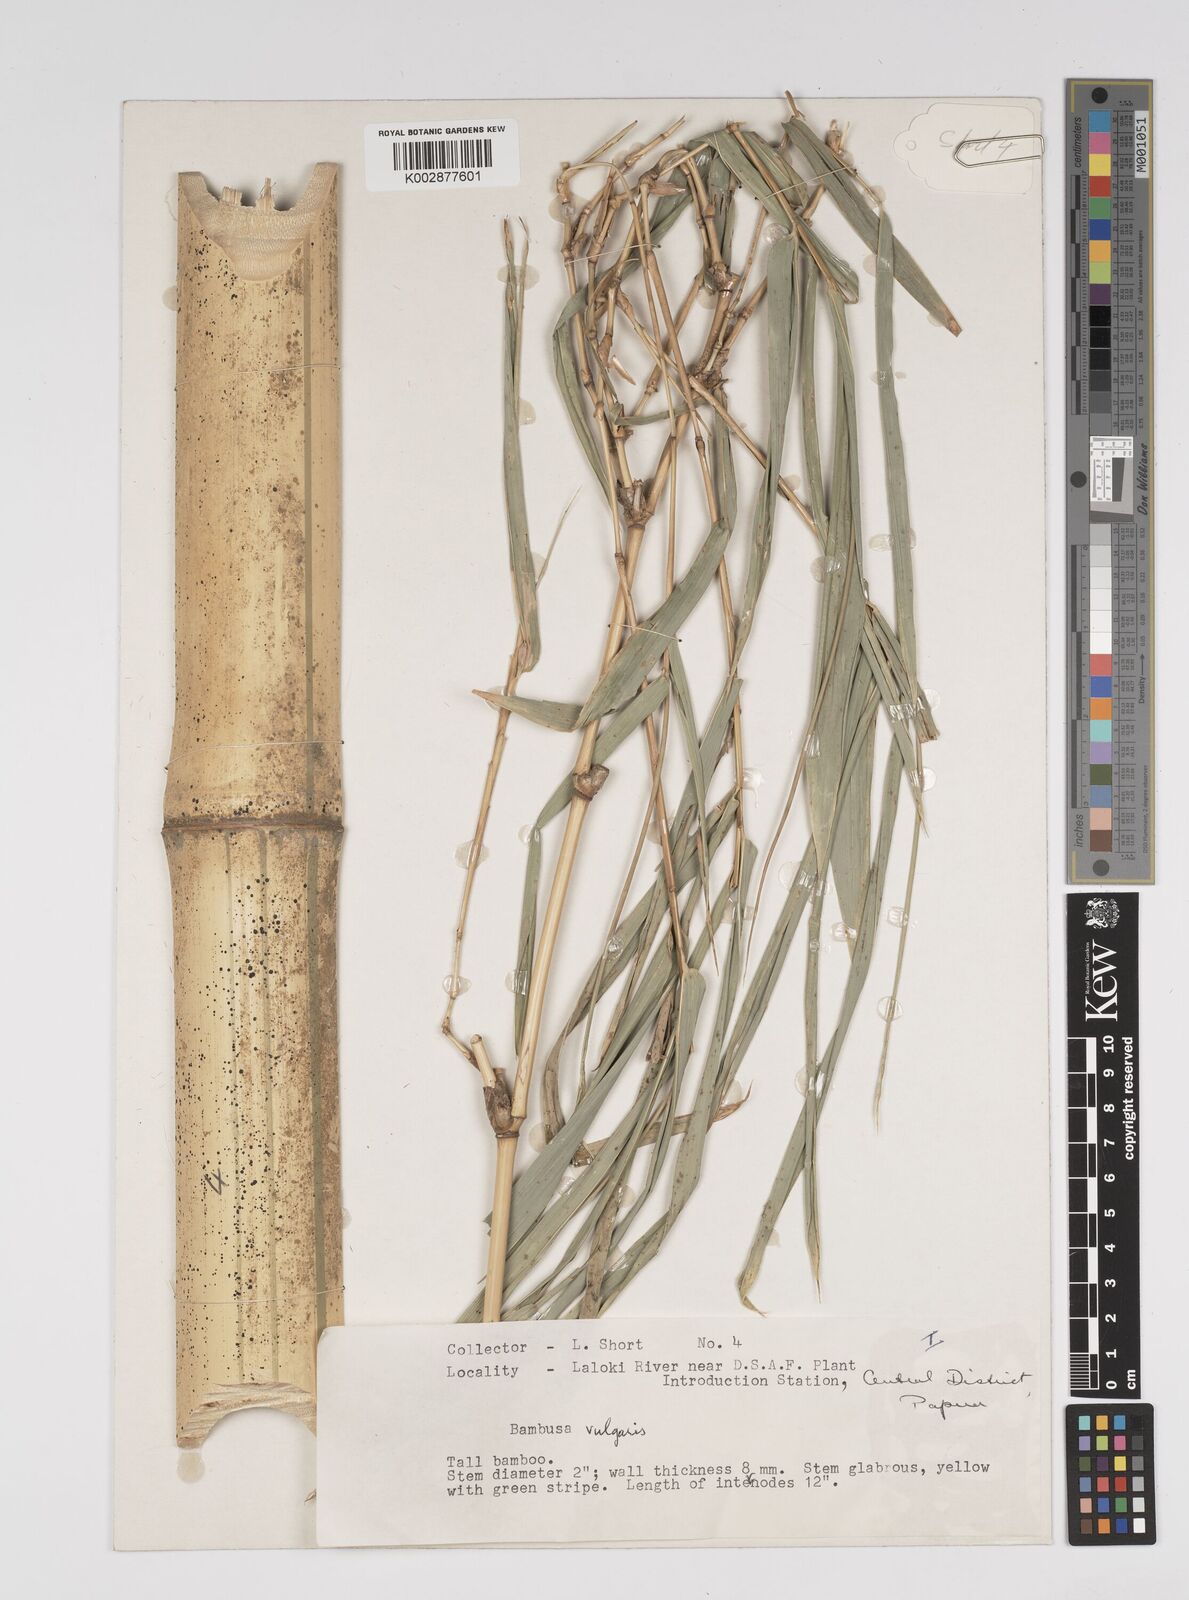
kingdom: Plantae
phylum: Tracheophyta
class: Liliopsida
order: Poales
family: Poaceae
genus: Bambusa
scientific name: Bambusa balcooa
